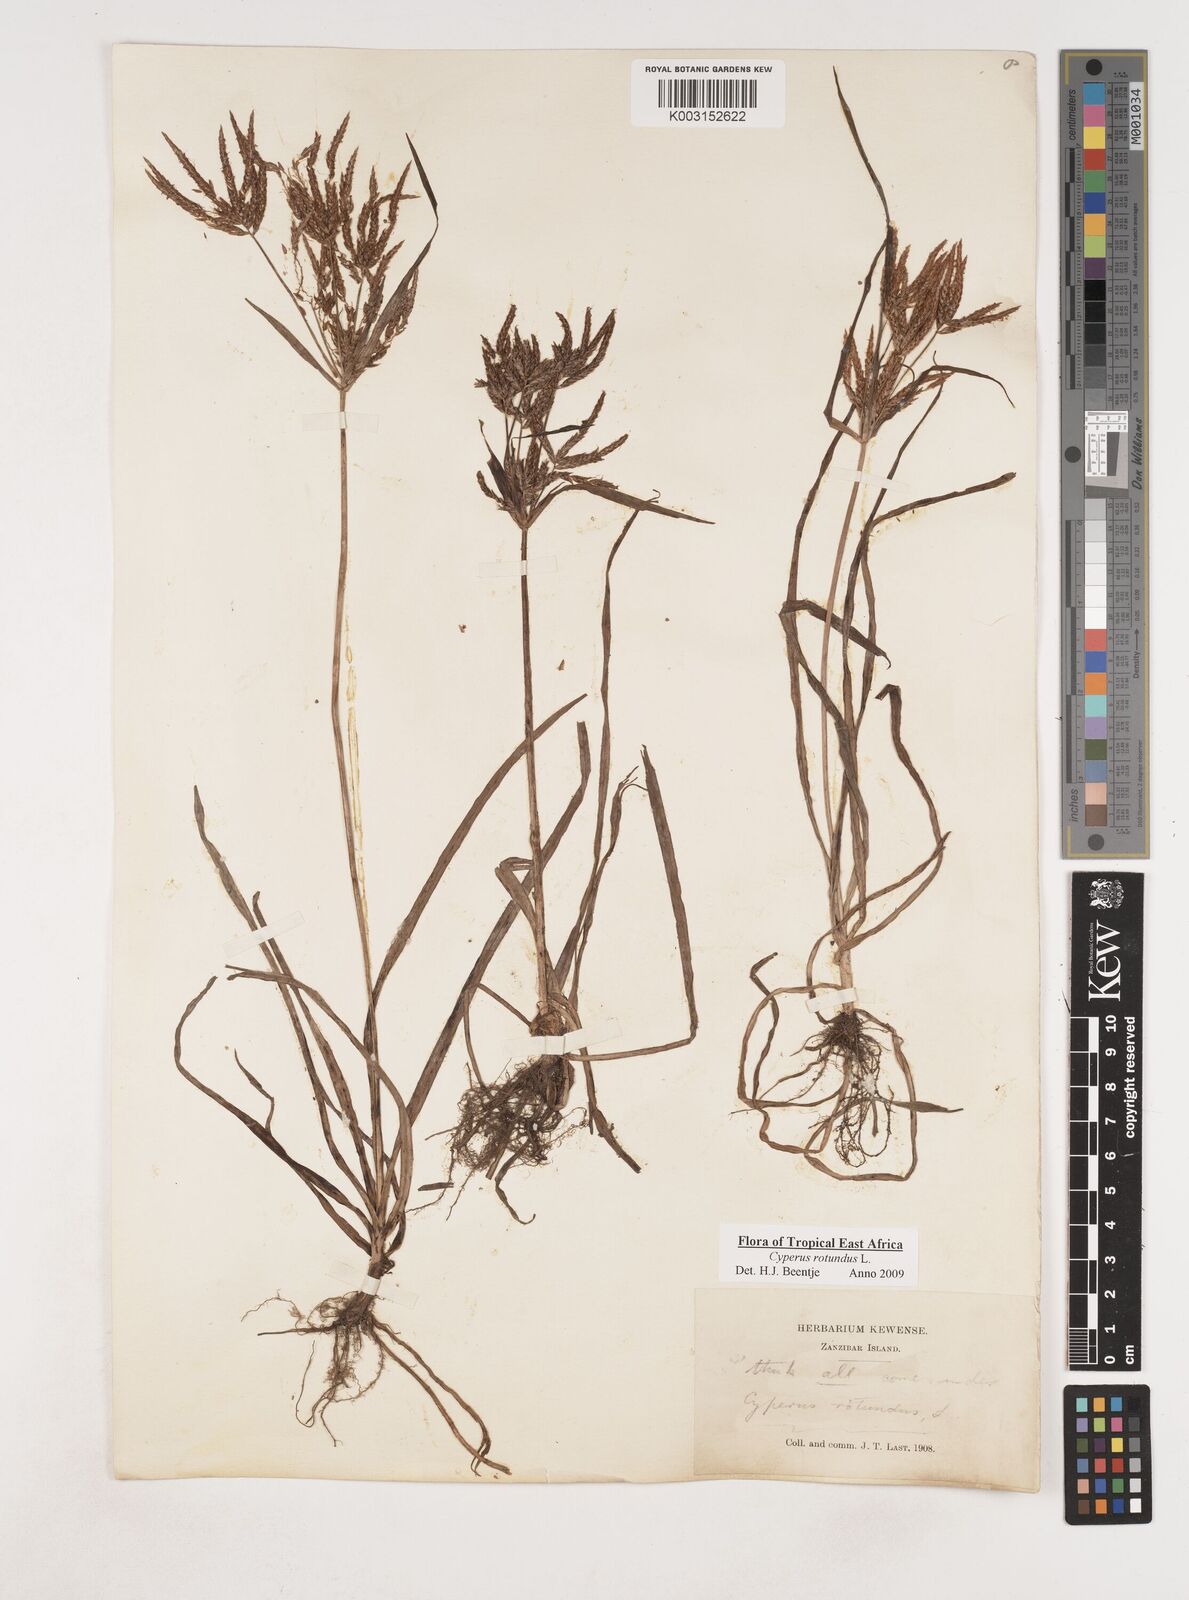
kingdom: Plantae
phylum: Tracheophyta
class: Liliopsida
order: Poales
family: Cyperaceae
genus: Cyperus
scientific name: Cyperus rotundus
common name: Nutgrass
